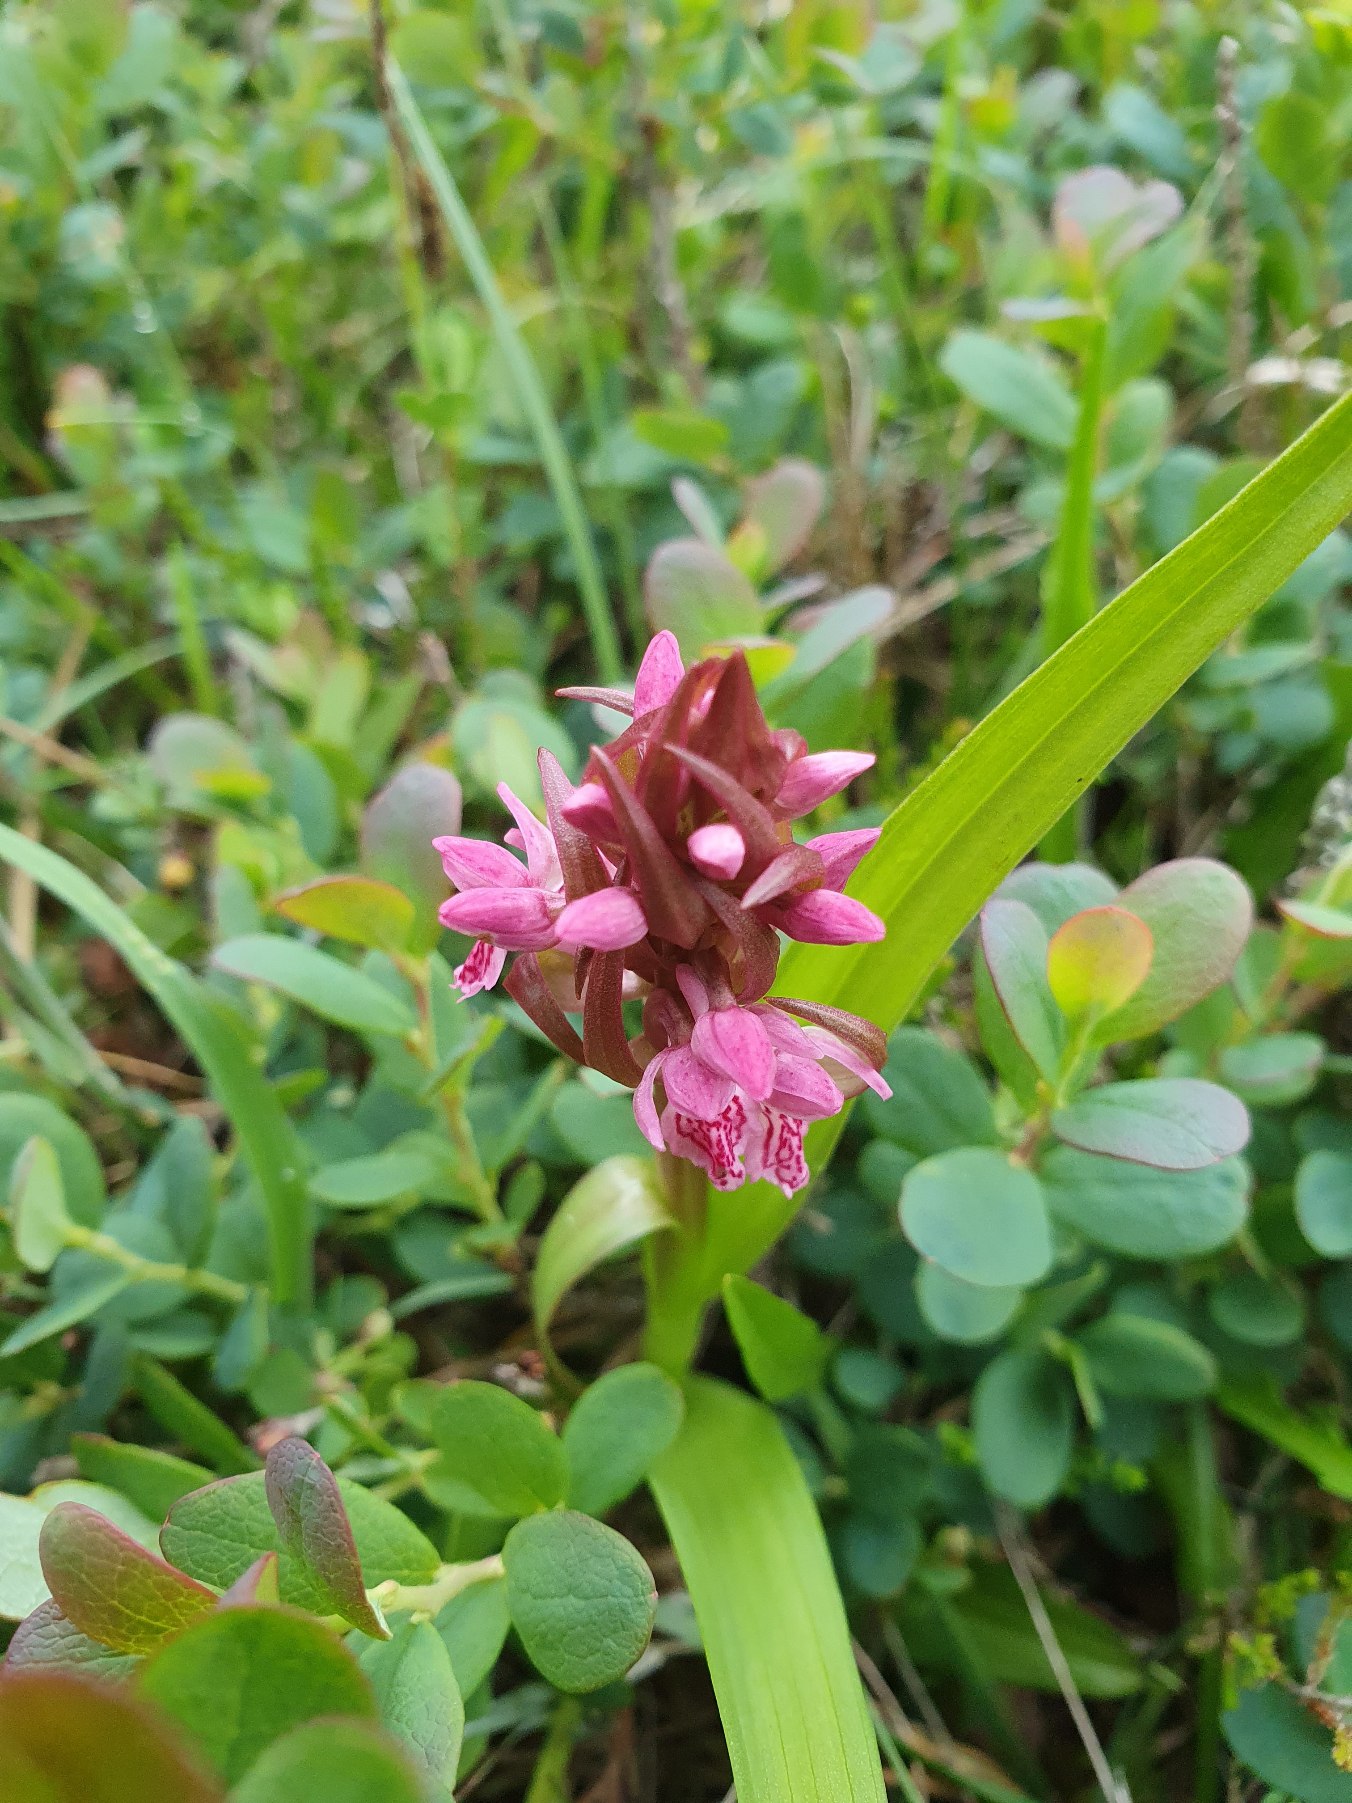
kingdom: Plantae
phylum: Tracheophyta
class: Liliopsida
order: Asparagales
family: Orchidaceae
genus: Dactylorhiza
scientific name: Dactylorhiza incarnata
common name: Kødfarvet gøgeurt
